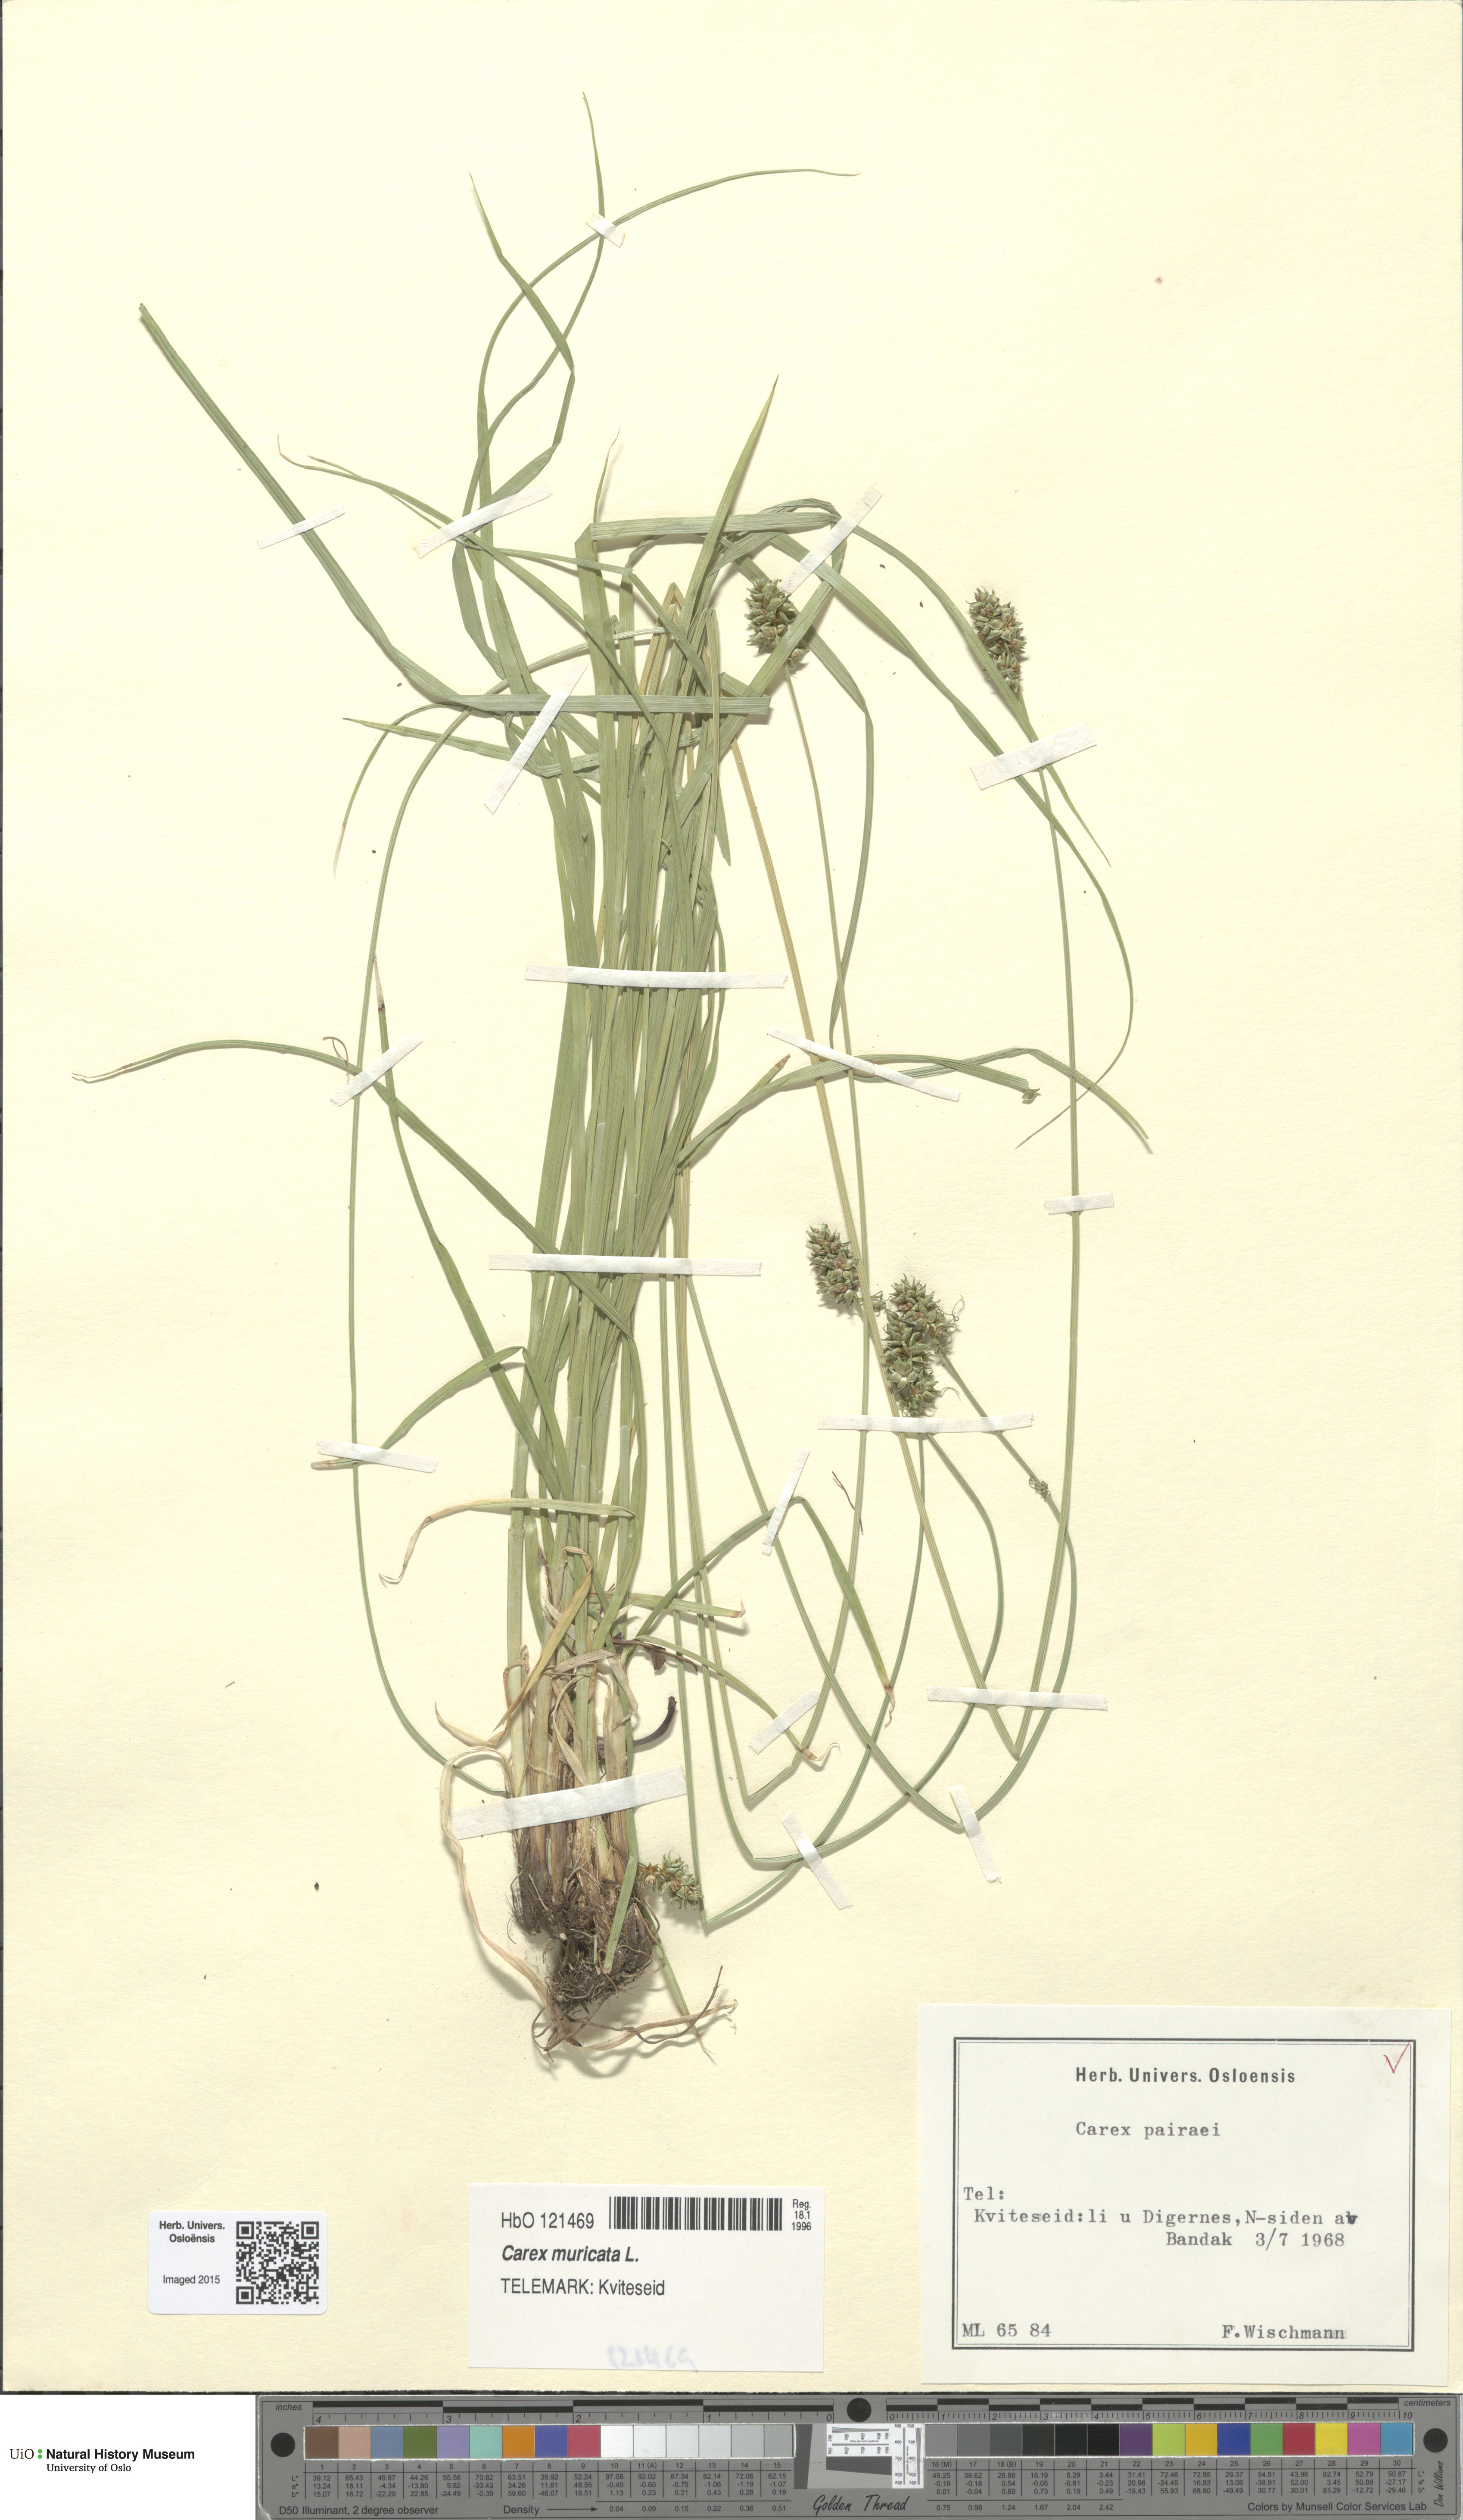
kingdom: Plantae
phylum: Tracheophyta
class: Liliopsida
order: Poales
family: Cyperaceae
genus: Carex
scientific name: Carex pairae
